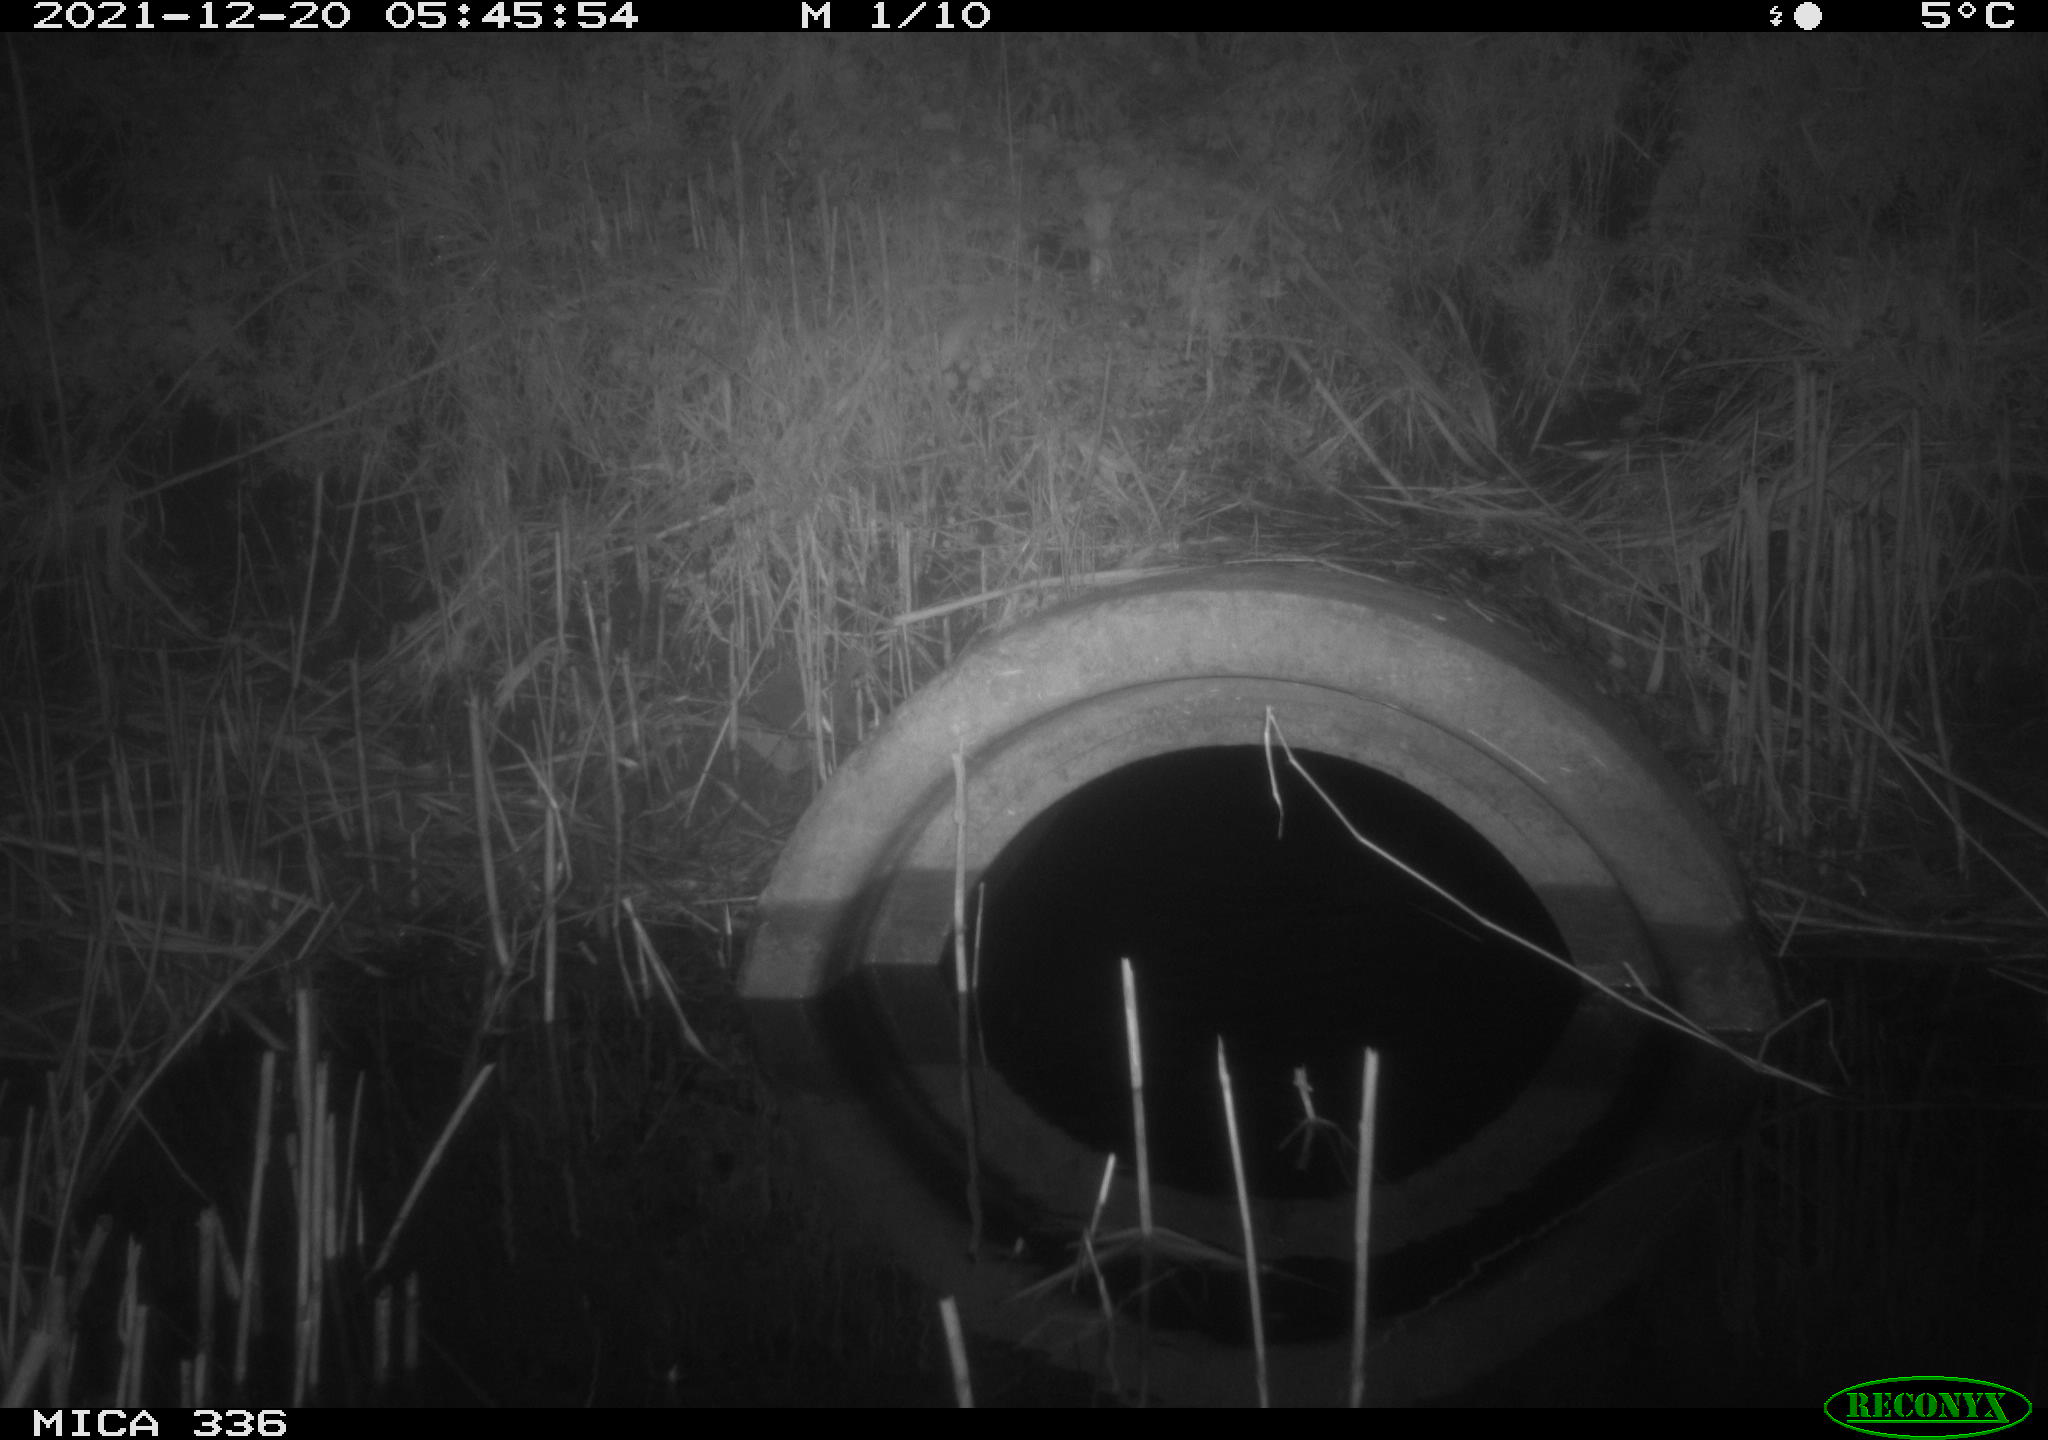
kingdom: Animalia
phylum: Chordata
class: Mammalia
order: Rodentia
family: Muridae
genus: Rattus
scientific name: Rattus norvegicus
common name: Brown rat
